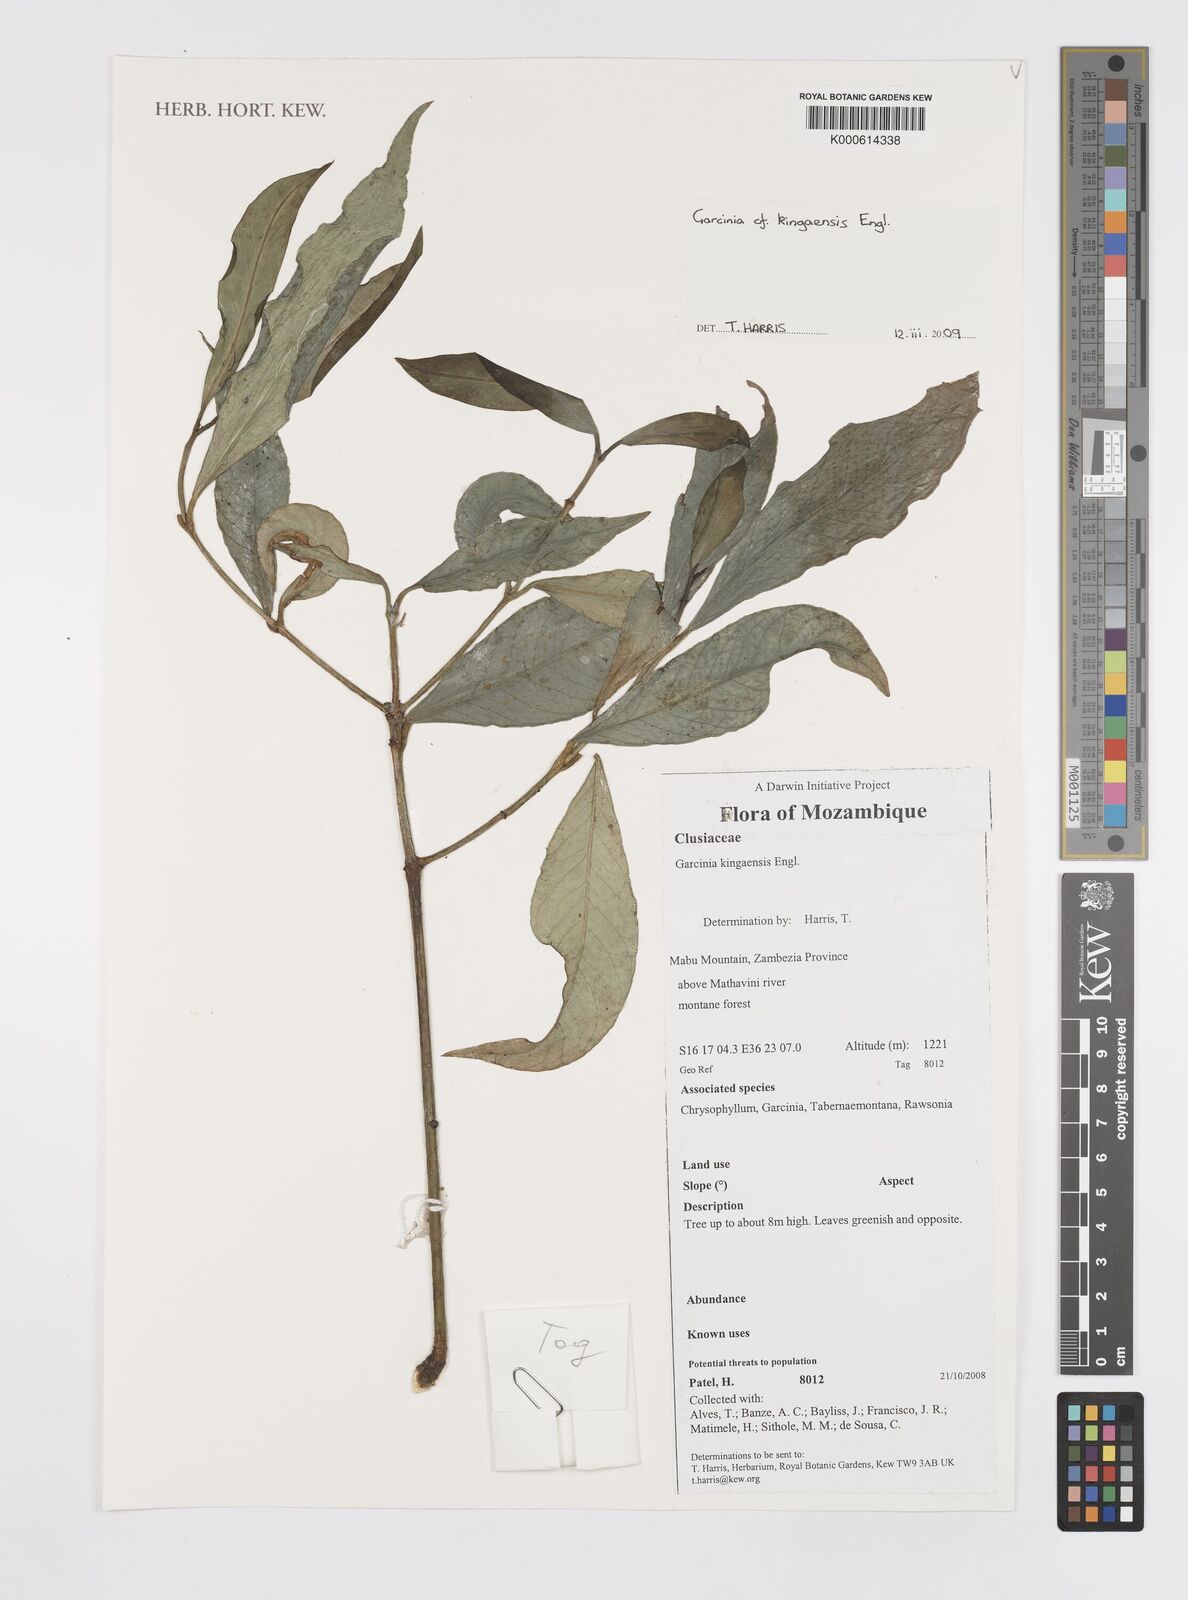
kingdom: Plantae
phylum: Tracheophyta
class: Magnoliopsida
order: Malpighiales
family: Clusiaceae
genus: Garcinia
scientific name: Garcinia kingaensis
